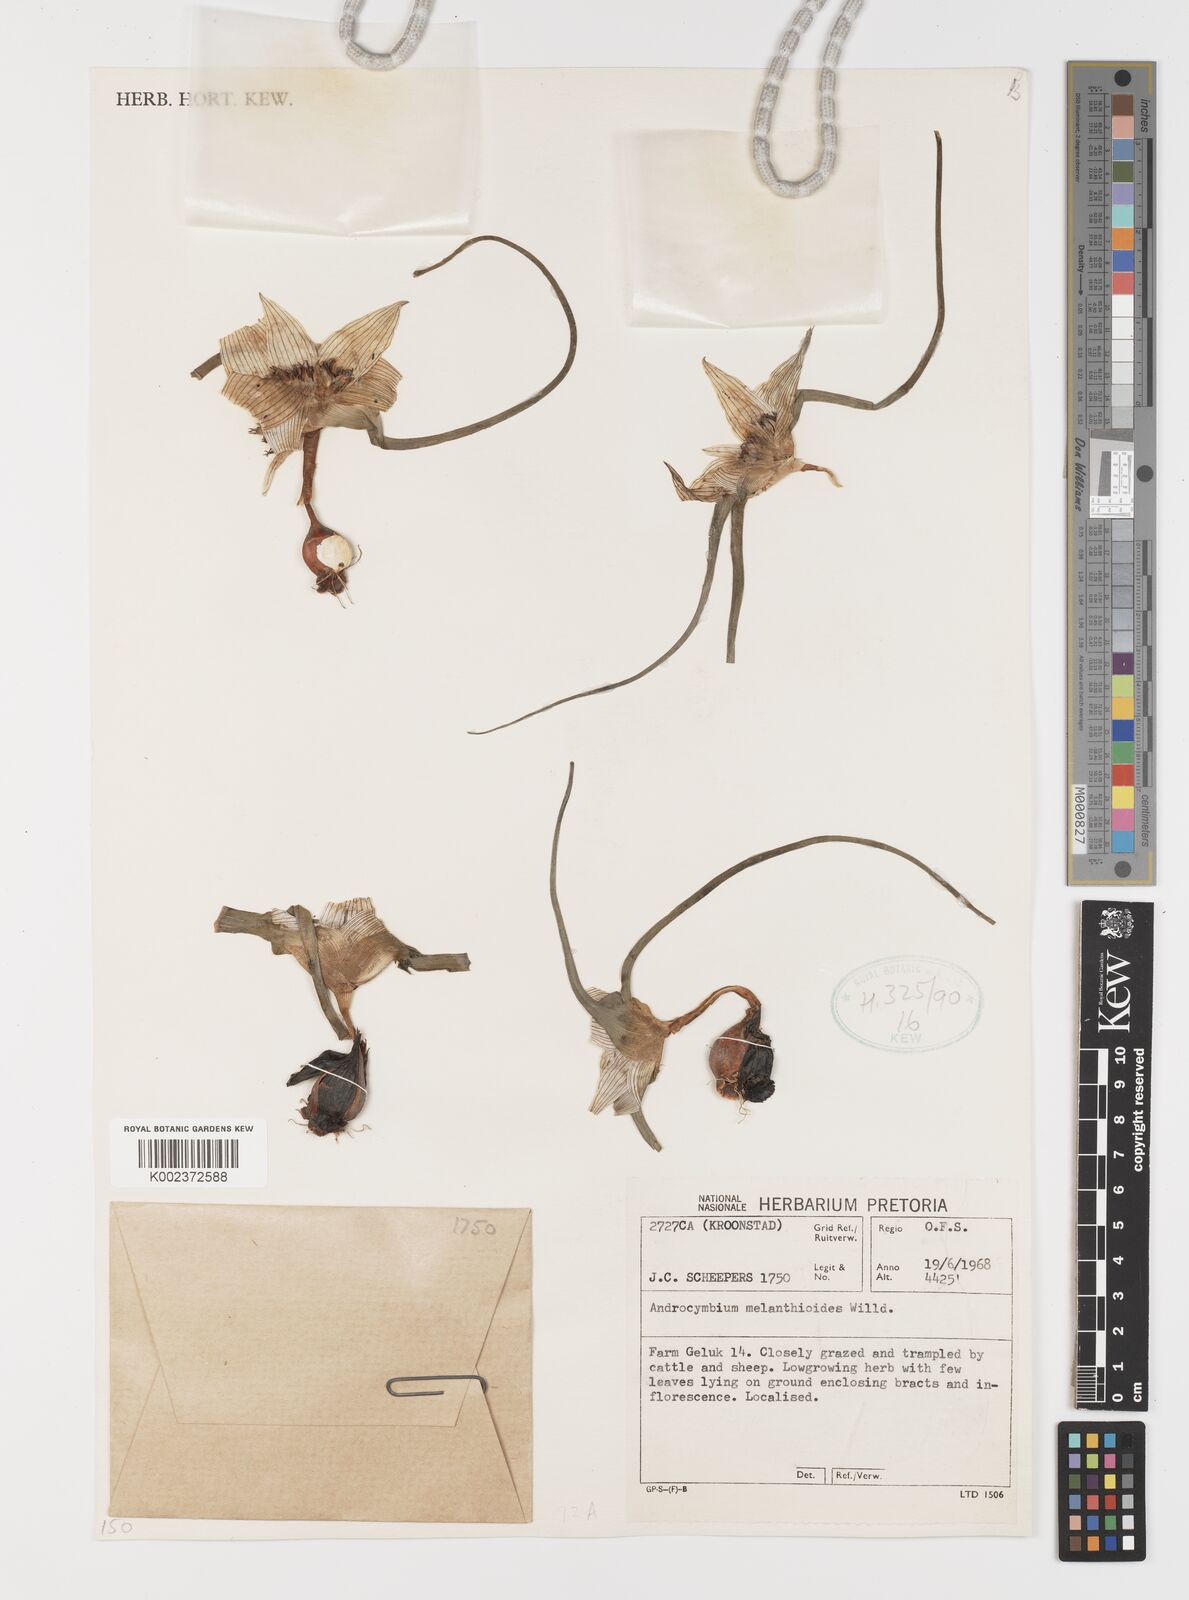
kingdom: Plantae
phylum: Tracheophyta
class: Liliopsida
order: Liliales
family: Colchicaceae
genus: Colchicum
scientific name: Colchicum melanthioides
